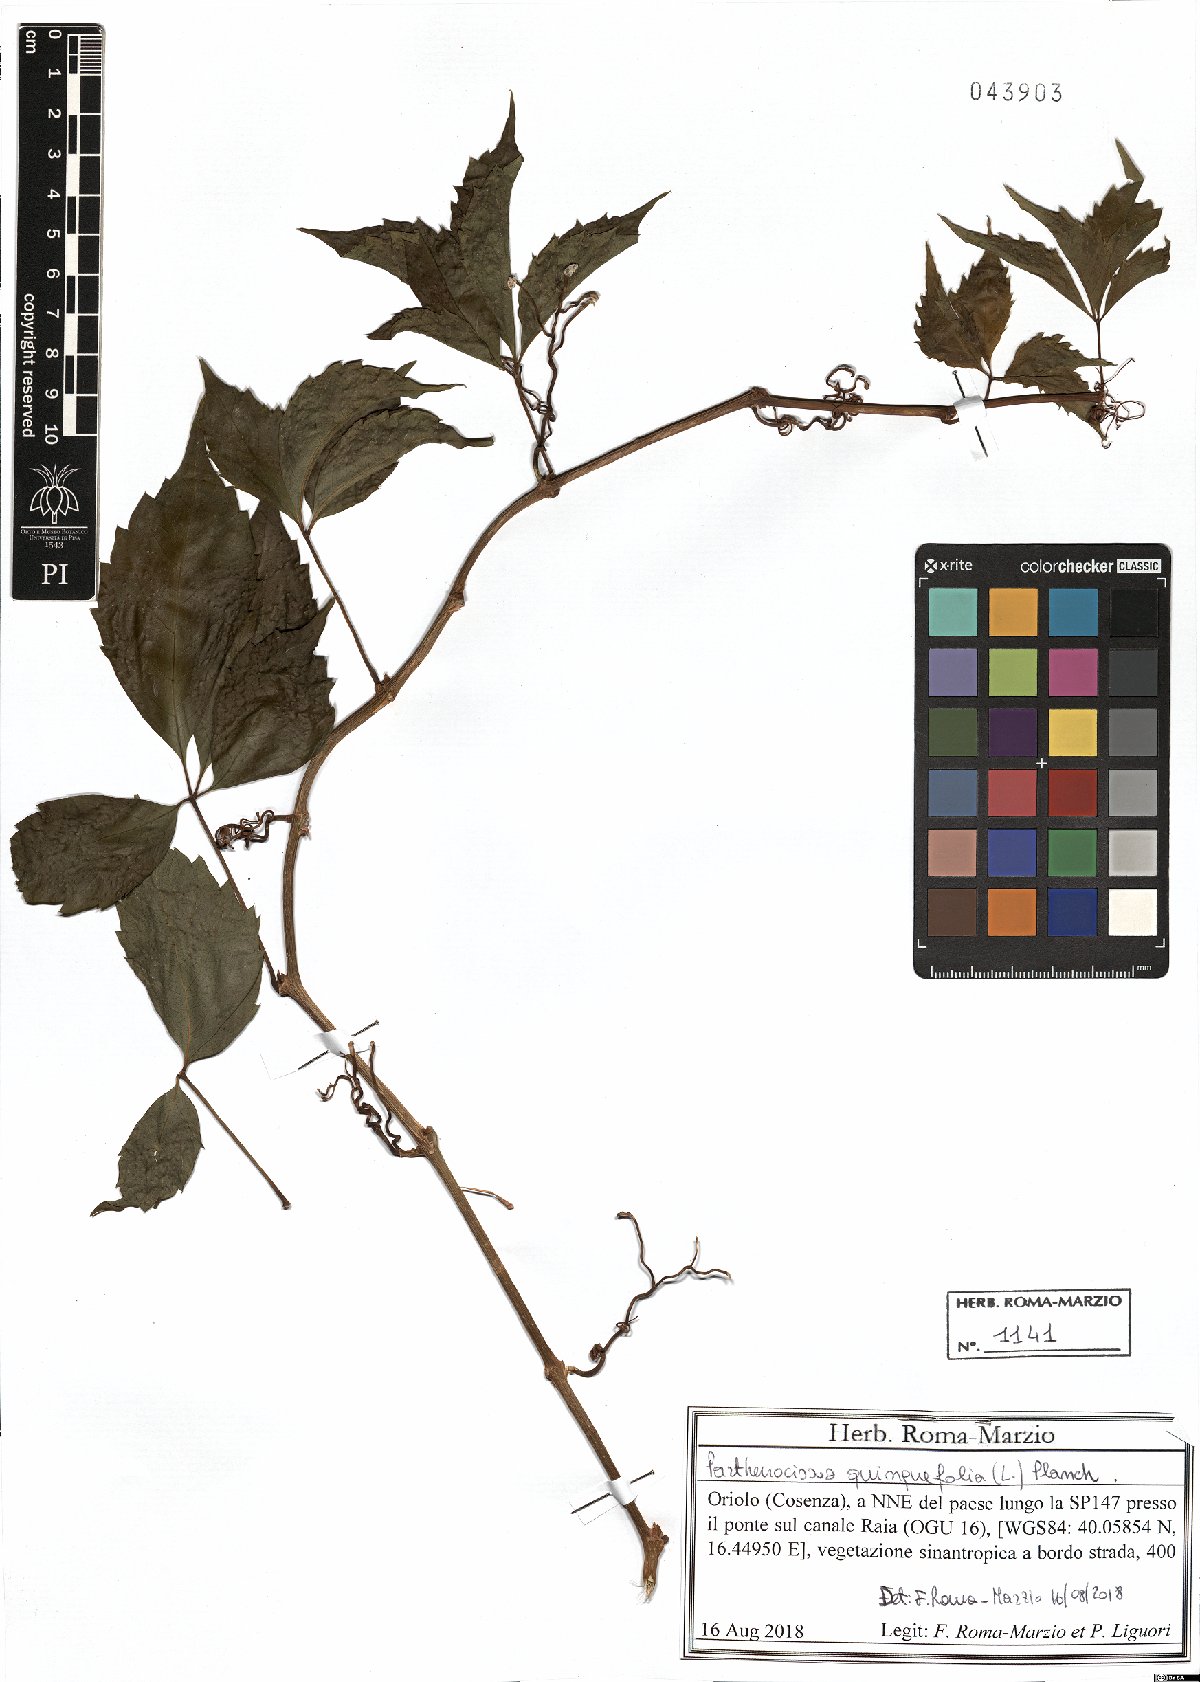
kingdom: Plantae
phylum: Tracheophyta
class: Magnoliopsida
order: Vitales
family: Vitaceae
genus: Parthenocissus
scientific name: Parthenocissus inserta
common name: False virginia-creeper
